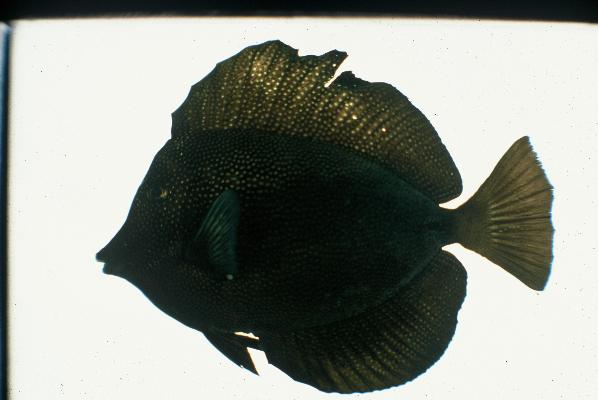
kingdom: Animalia
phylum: Chordata
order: Perciformes
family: Acanthuridae
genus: Zebrasoma
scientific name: Zebrasoma gemmatum
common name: Gem surgeonfish
